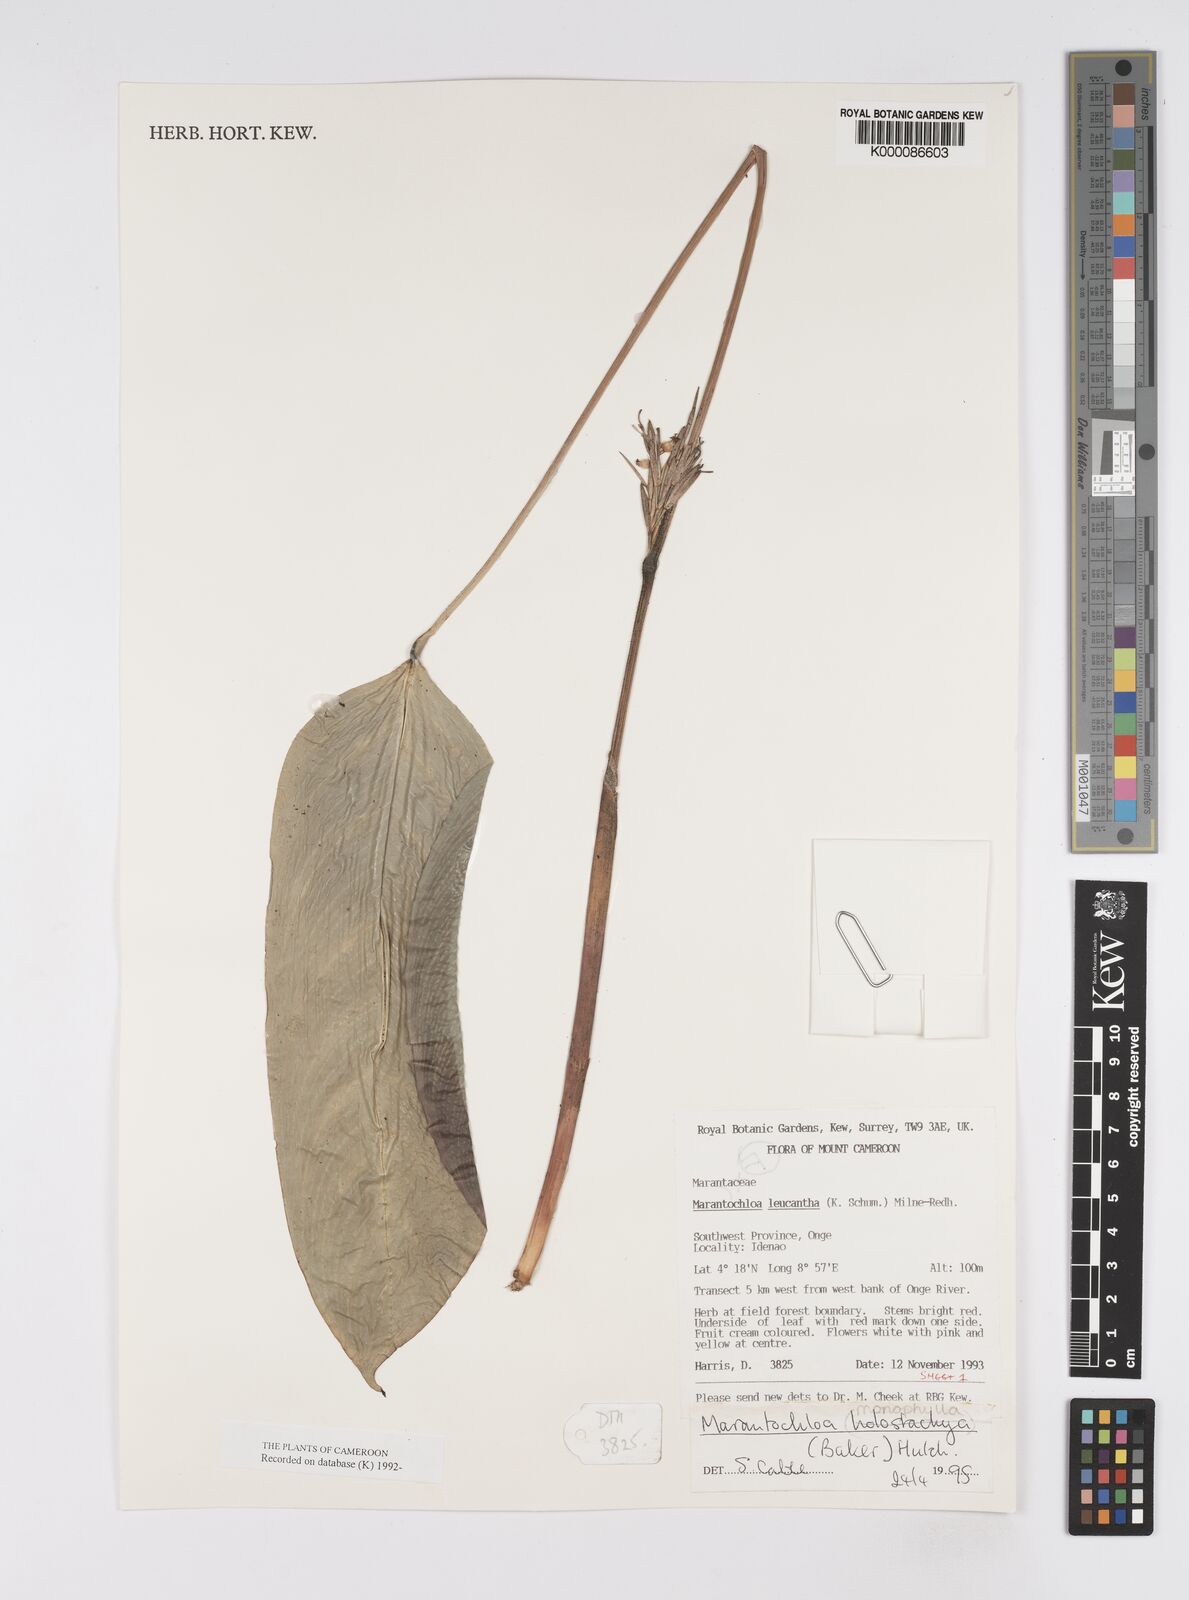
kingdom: Plantae
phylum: Tracheophyta
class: Liliopsida
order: Zingiberales
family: Marantaceae
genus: Marantochloa
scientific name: Marantochloa monophylla
